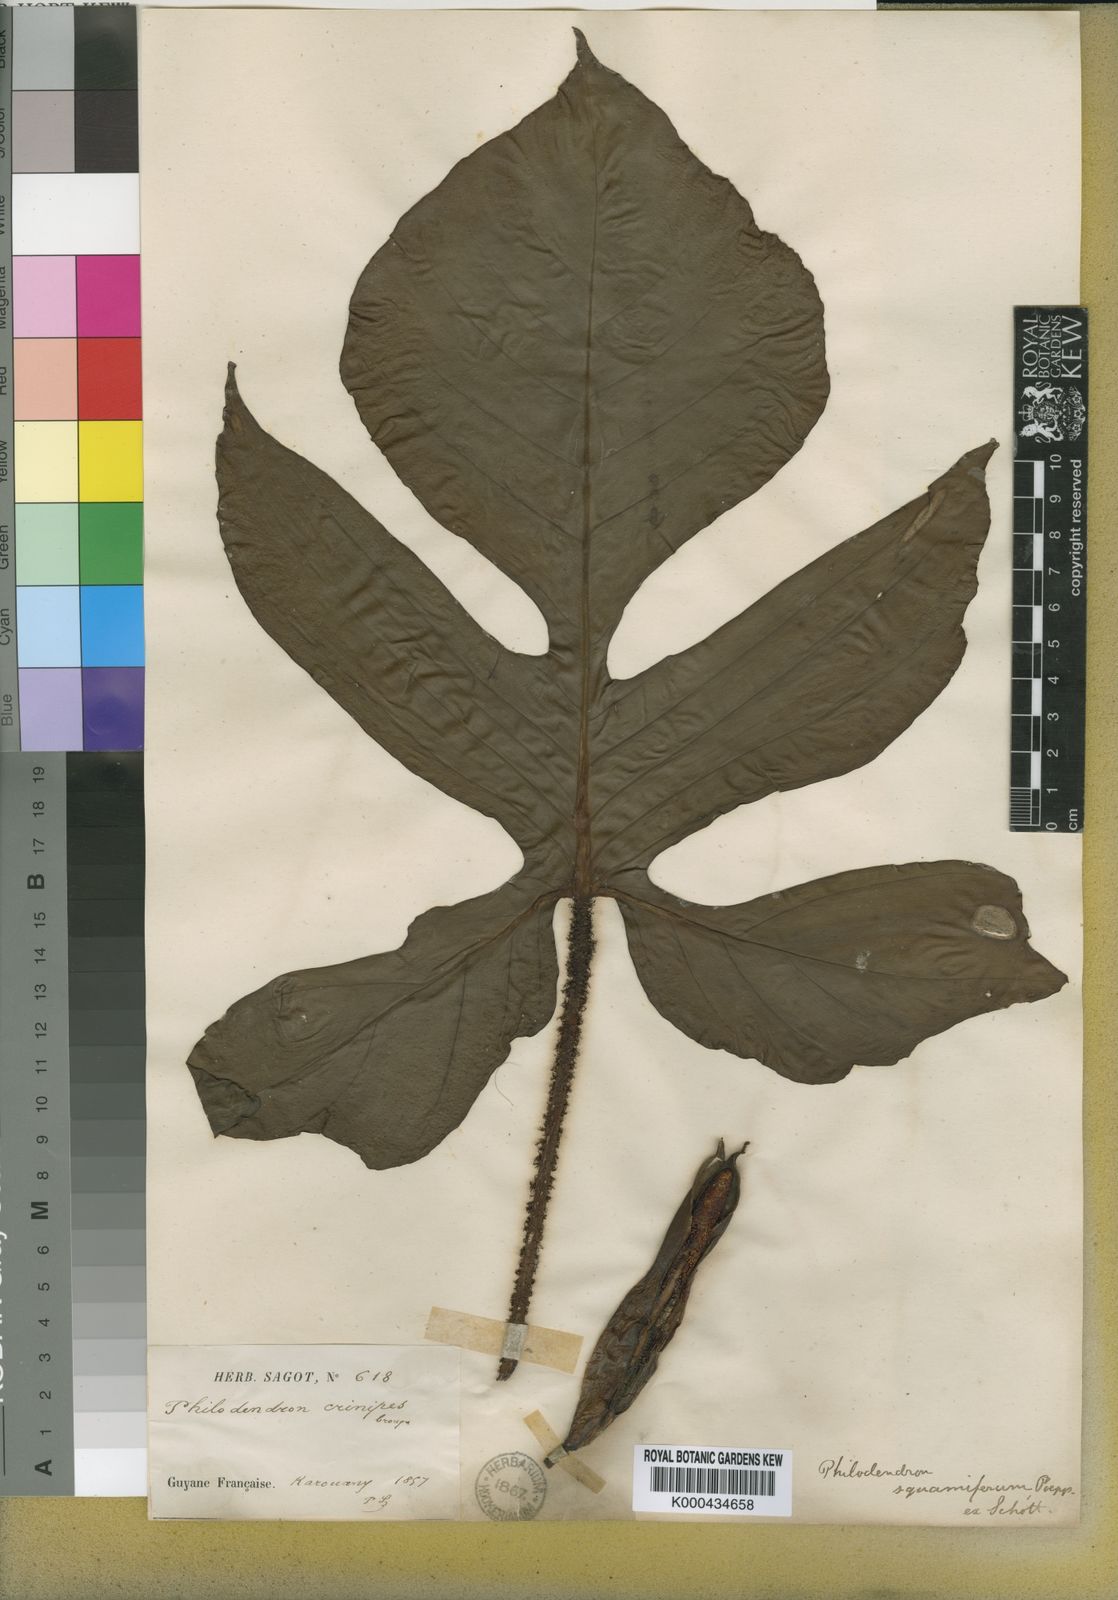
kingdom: Plantae
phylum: Tracheophyta
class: Liliopsida
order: Alismatales
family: Araceae
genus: Philodendron
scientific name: Philodendron squamiferum
